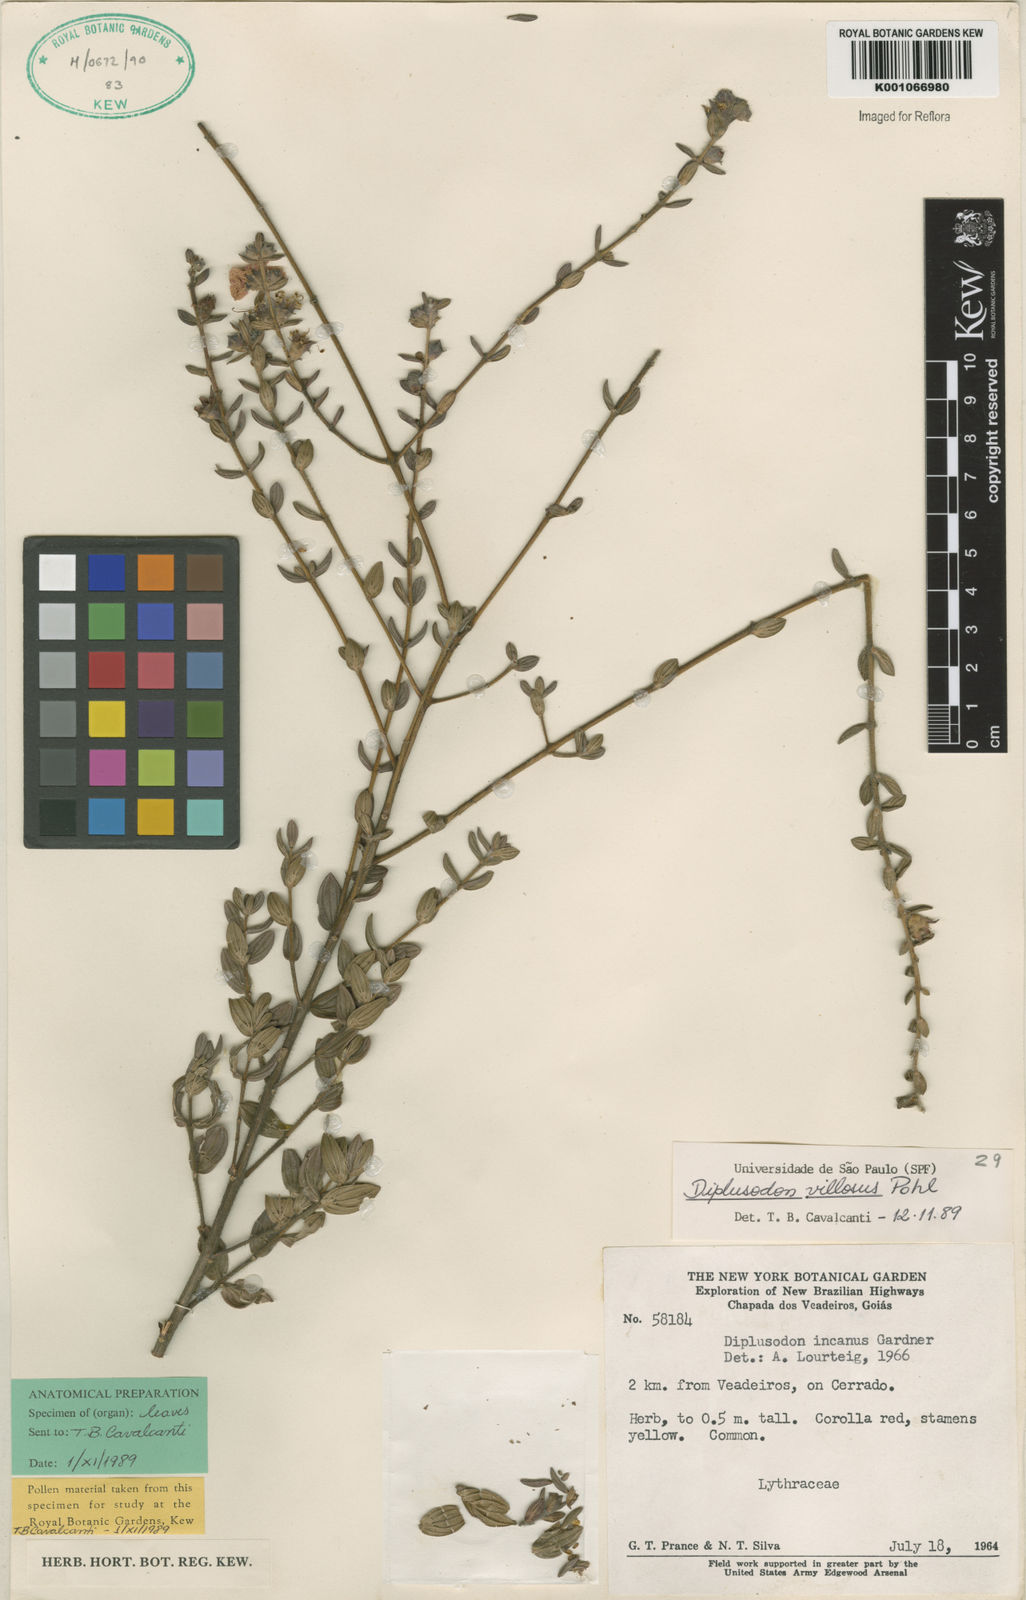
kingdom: Plantae
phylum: Tracheophyta
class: Magnoliopsida
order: Myrtales
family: Lythraceae
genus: Diplusodon
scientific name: Diplusodon villosus
